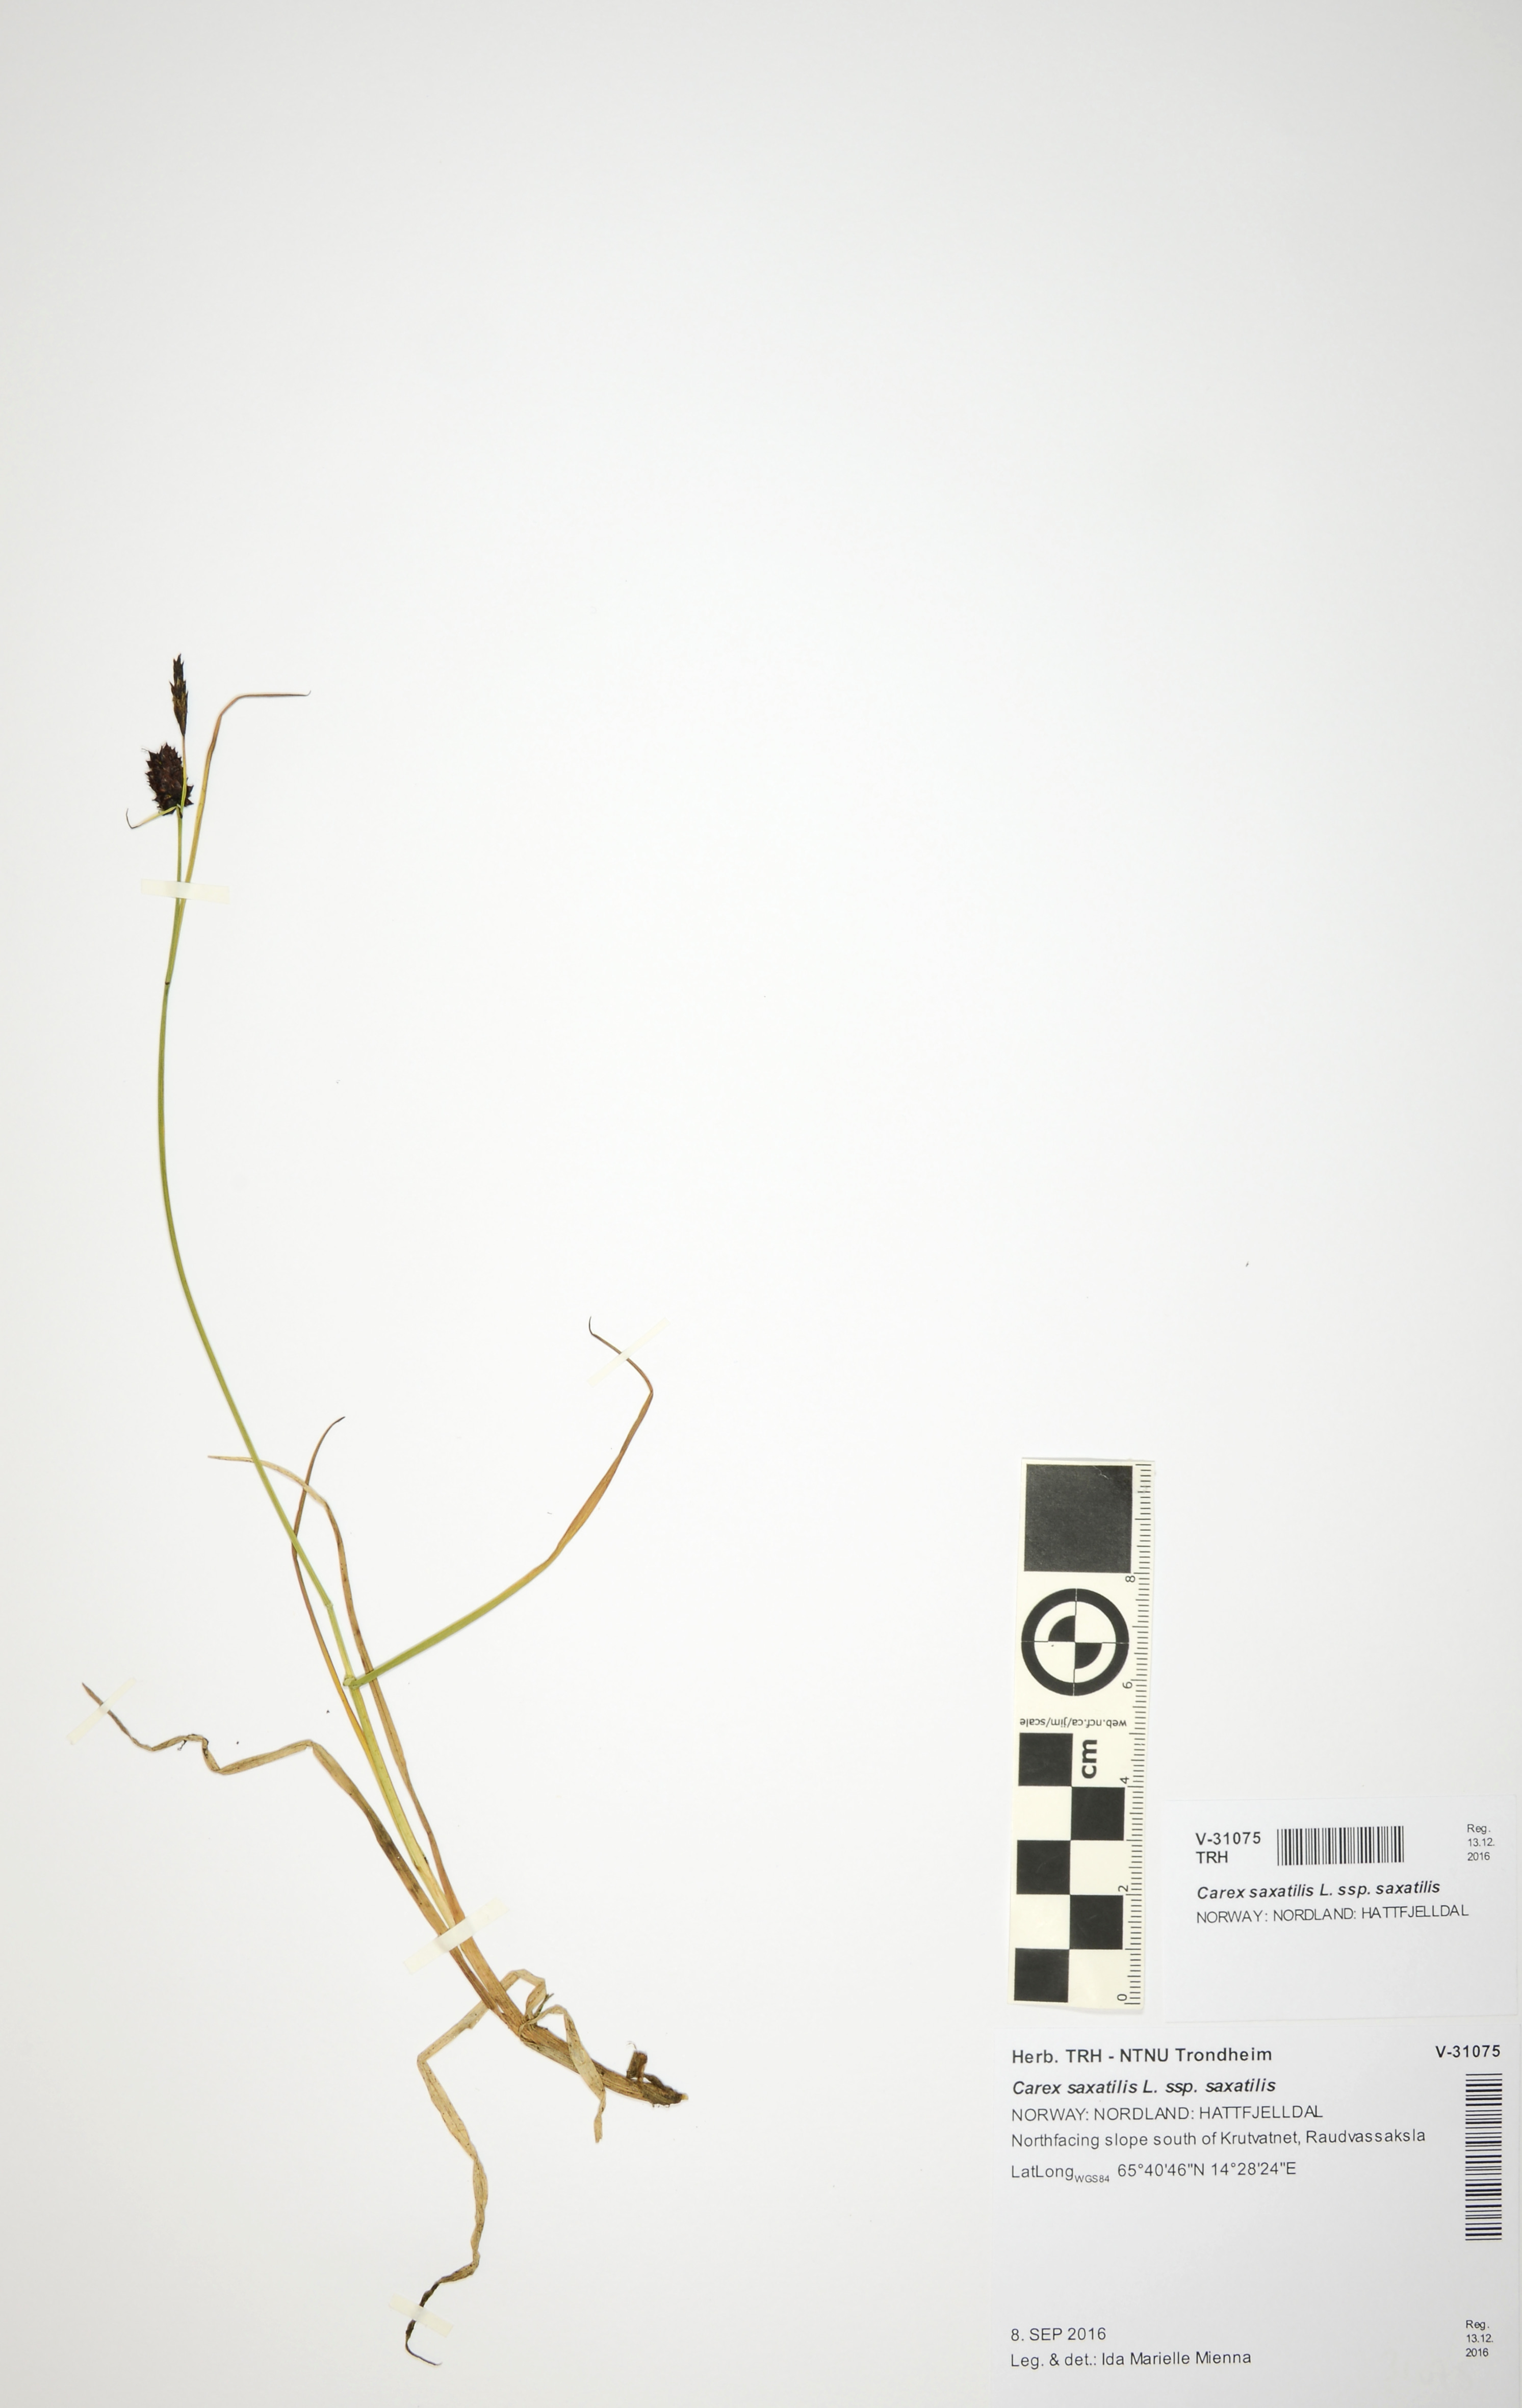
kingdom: Plantae
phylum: Tracheophyta
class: Liliopsida
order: Poales
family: Cyperaceae
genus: Carex
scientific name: Carex saxatilis
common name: Russet sedge
